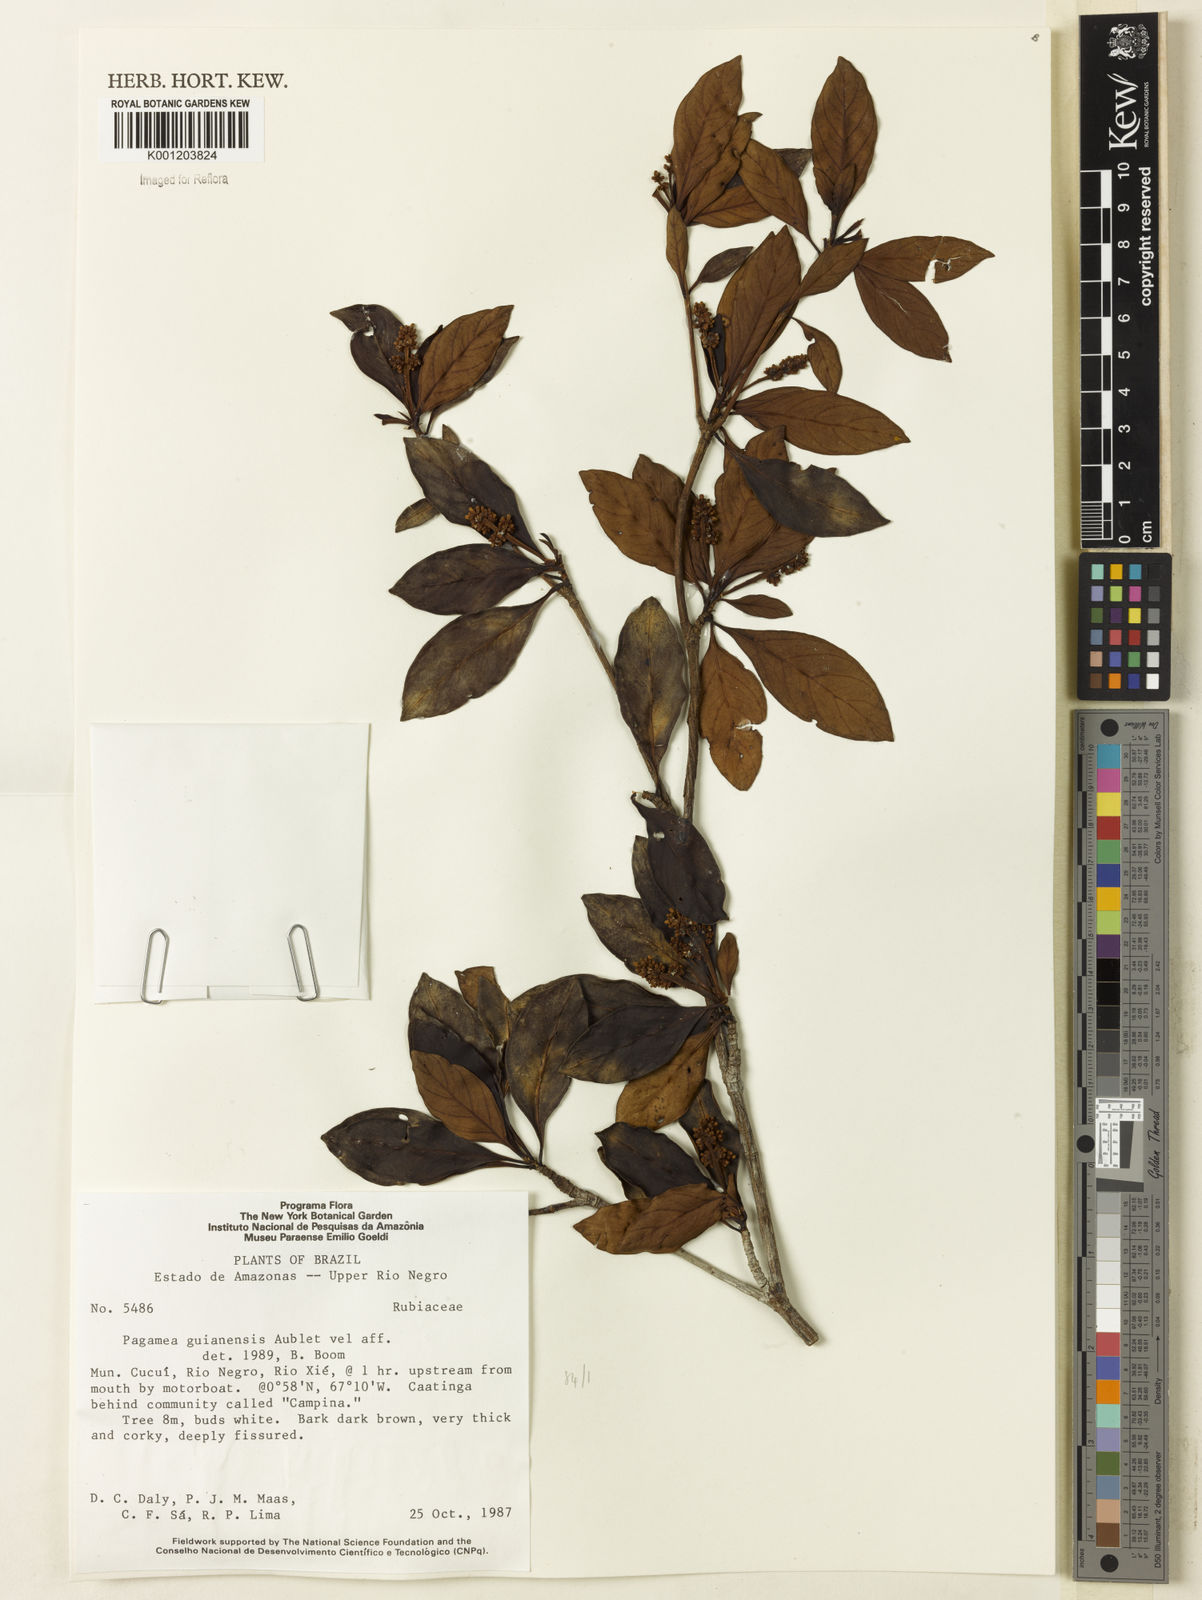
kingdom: Plantae
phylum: Tracheophyta
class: Magnoliopsida
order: Gentianales
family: Rubiaceae
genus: Pagamea
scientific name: Pagamea guianensis
